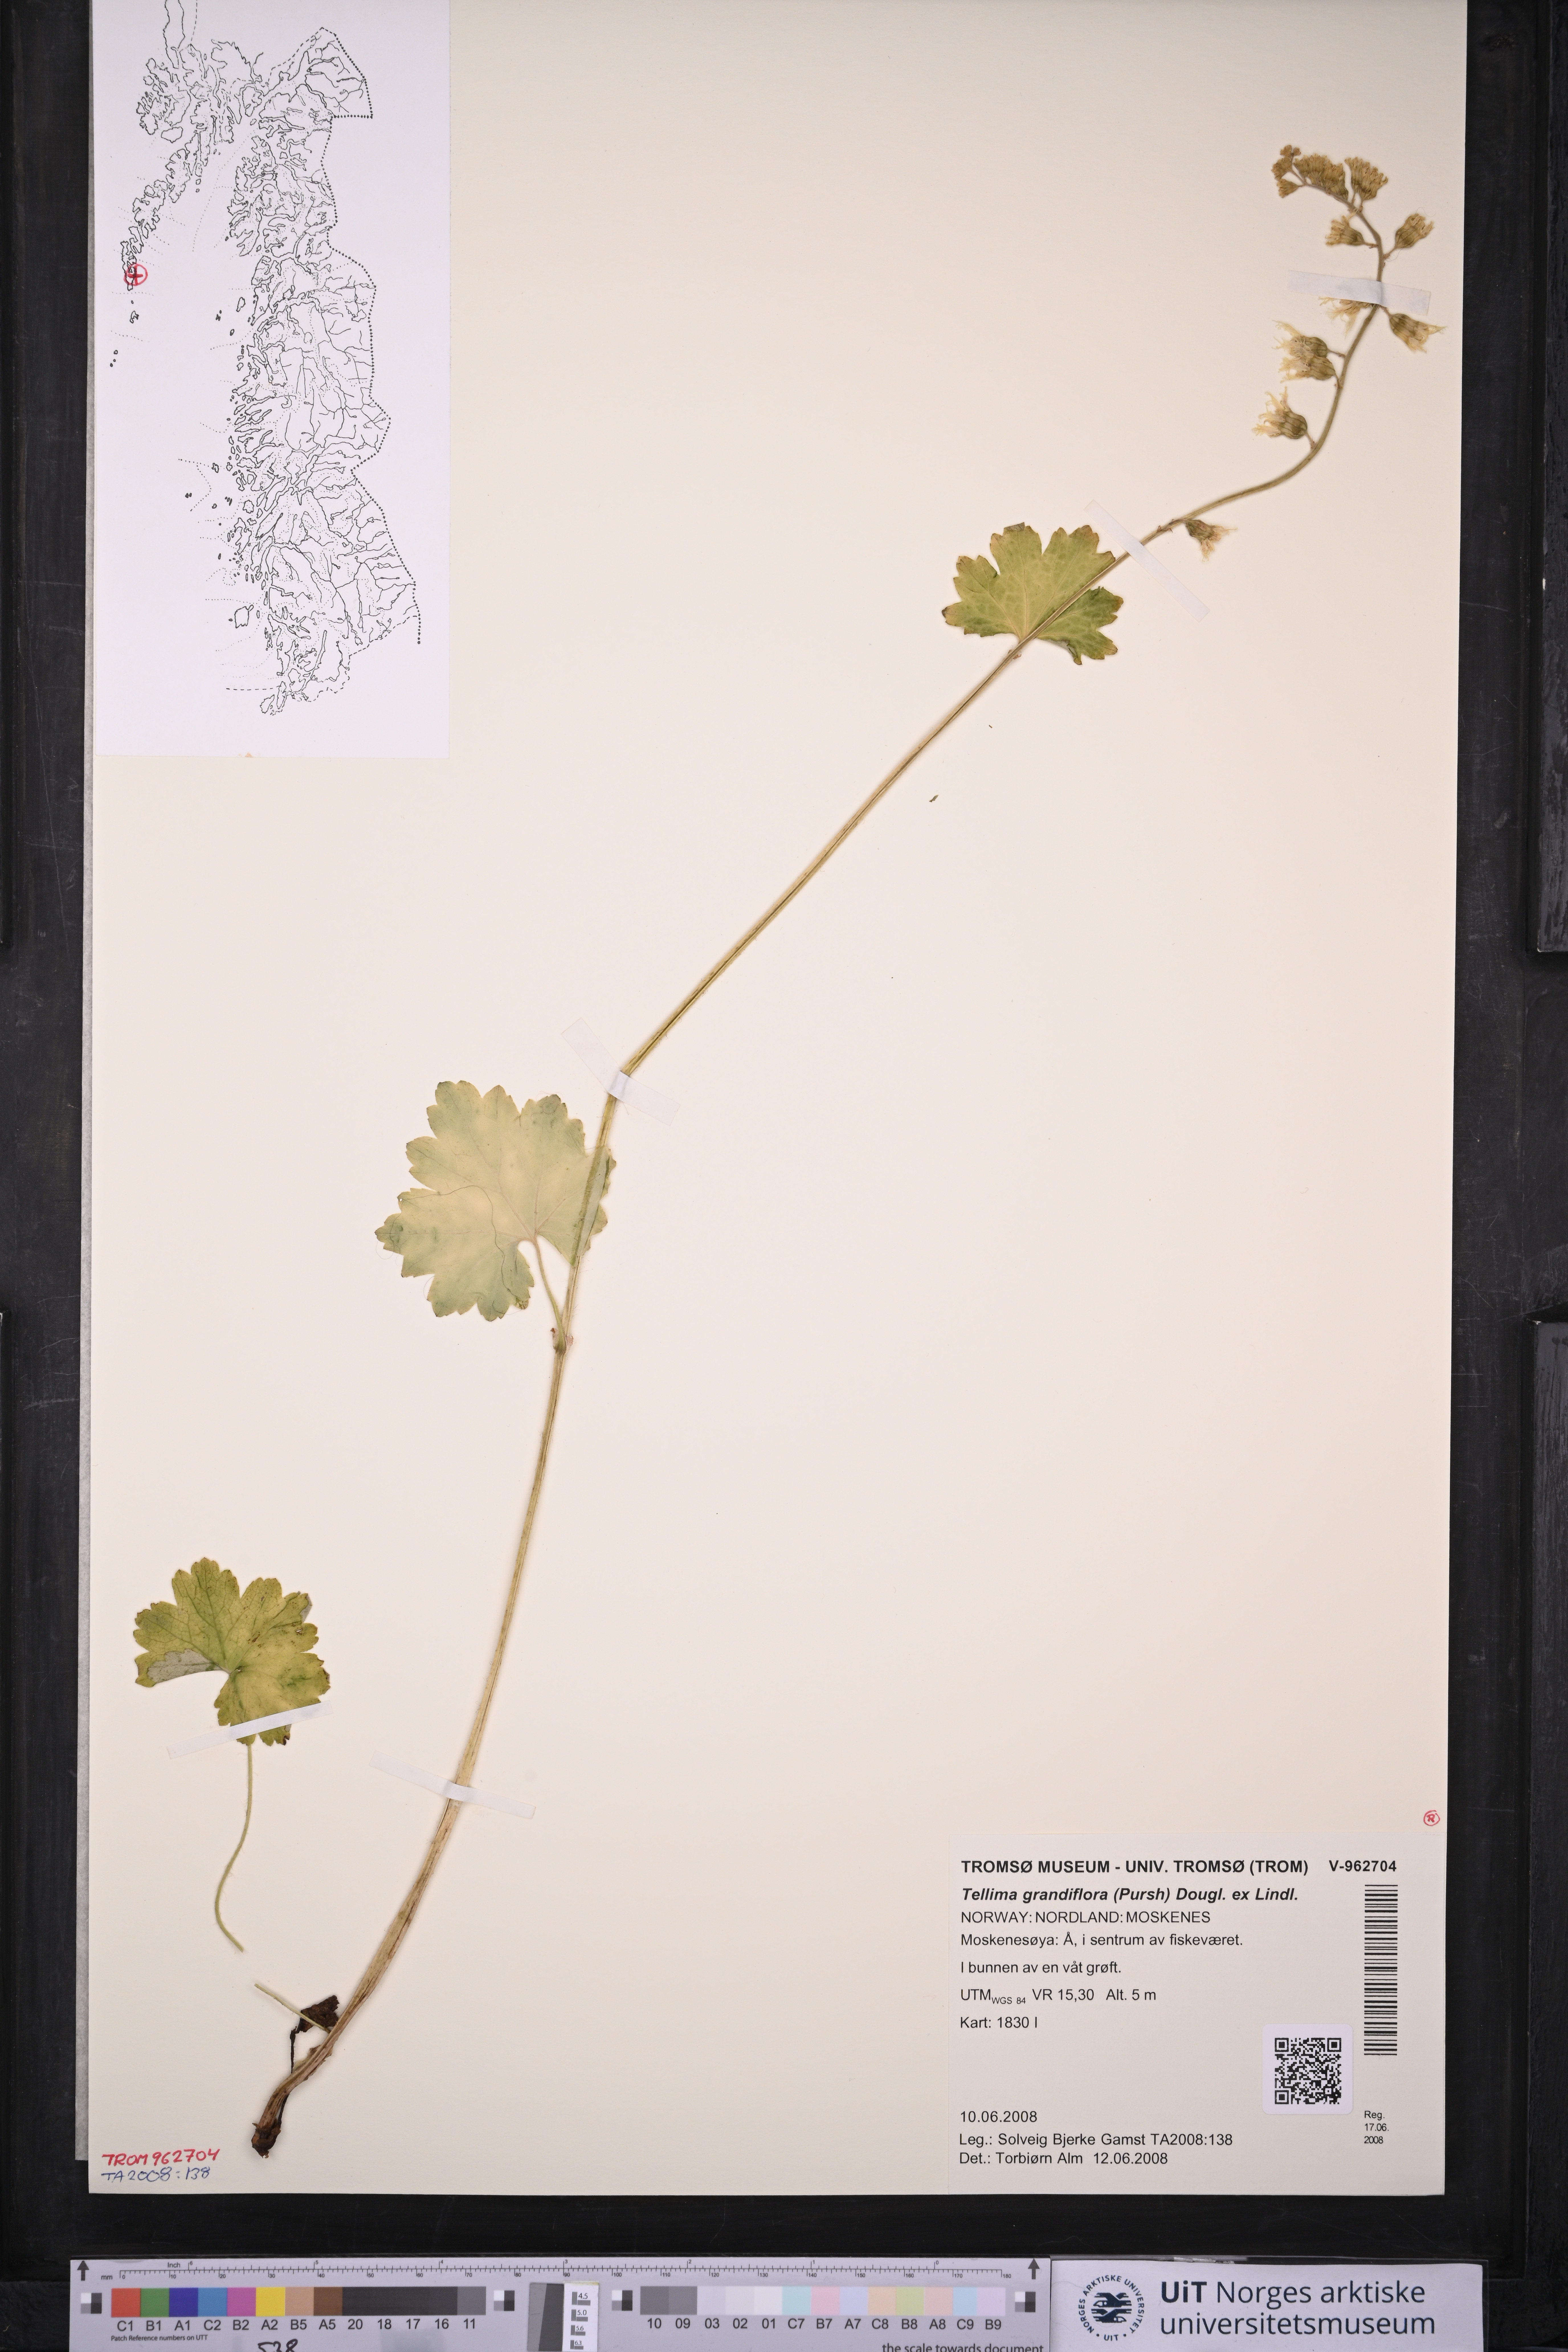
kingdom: Plantae
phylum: Tracheophyta
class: Magnoliopsida
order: Saxifragales
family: Saxifragaceae
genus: Tellima
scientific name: Tellima grandiflora
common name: Fringecups
